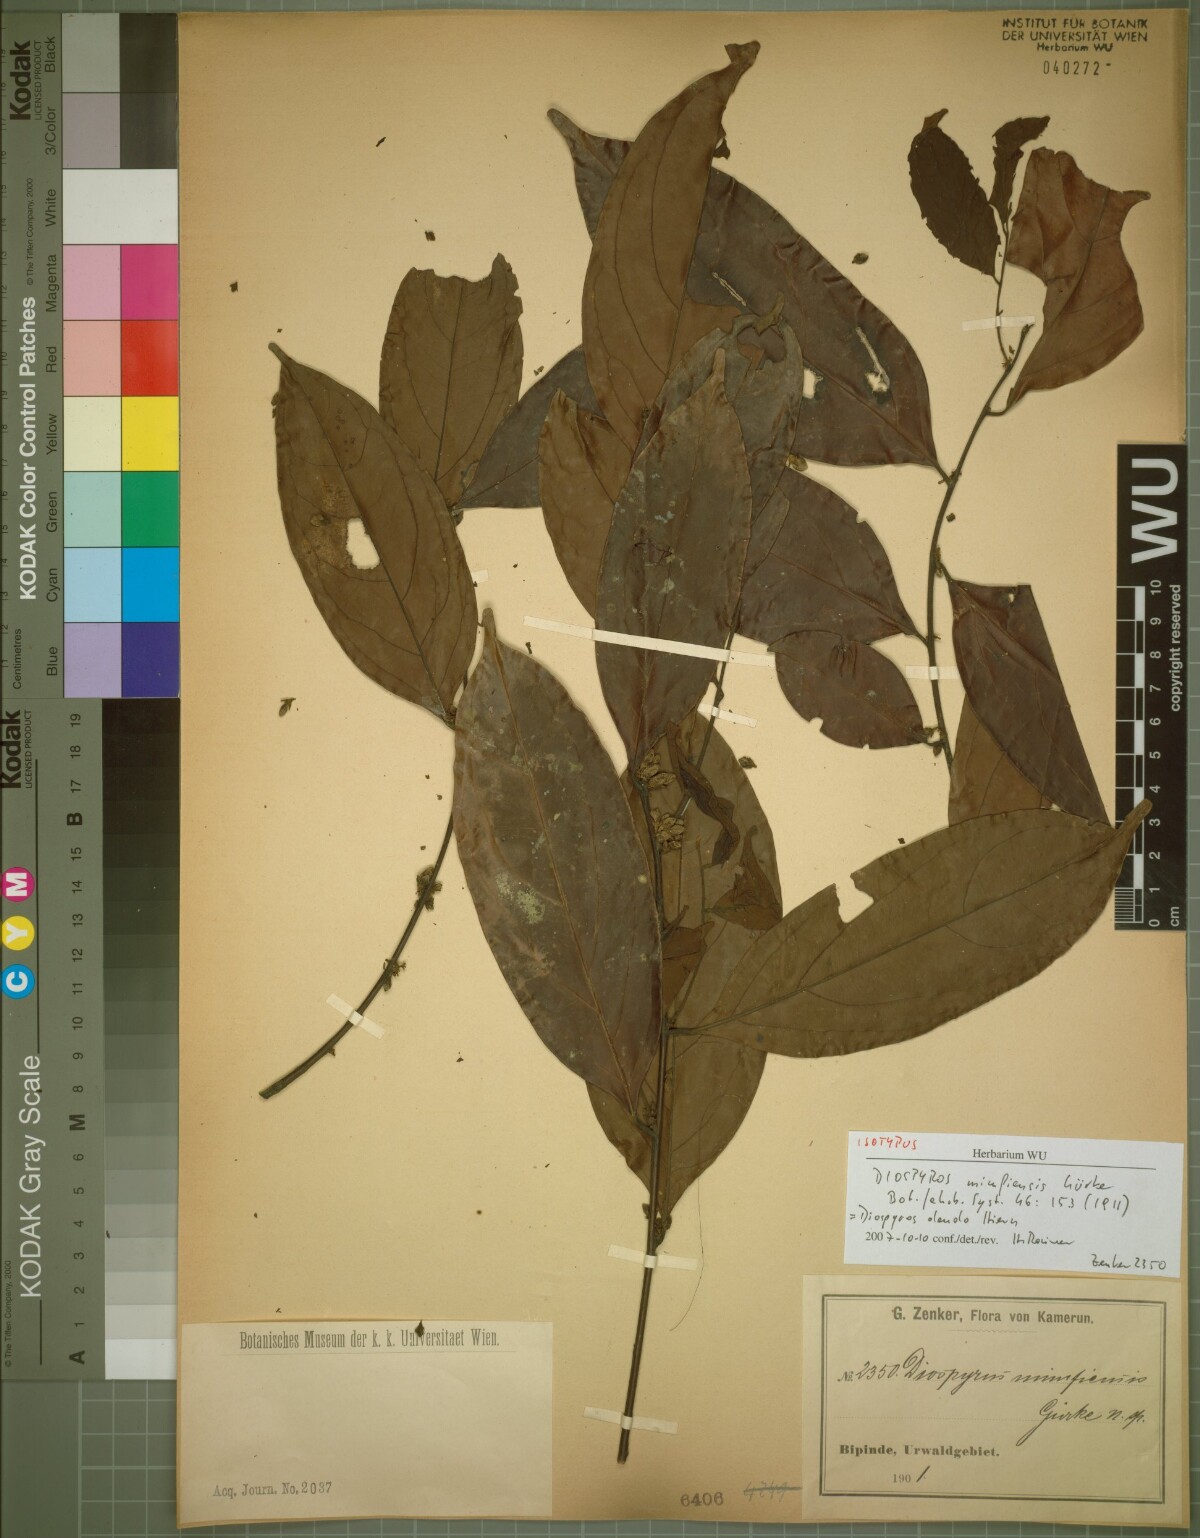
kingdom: Plantae
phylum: Tracheophyta
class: Magnoliopsida
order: Ericales
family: Ebenaceae
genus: Diospyros
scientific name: Diospyros dendo
